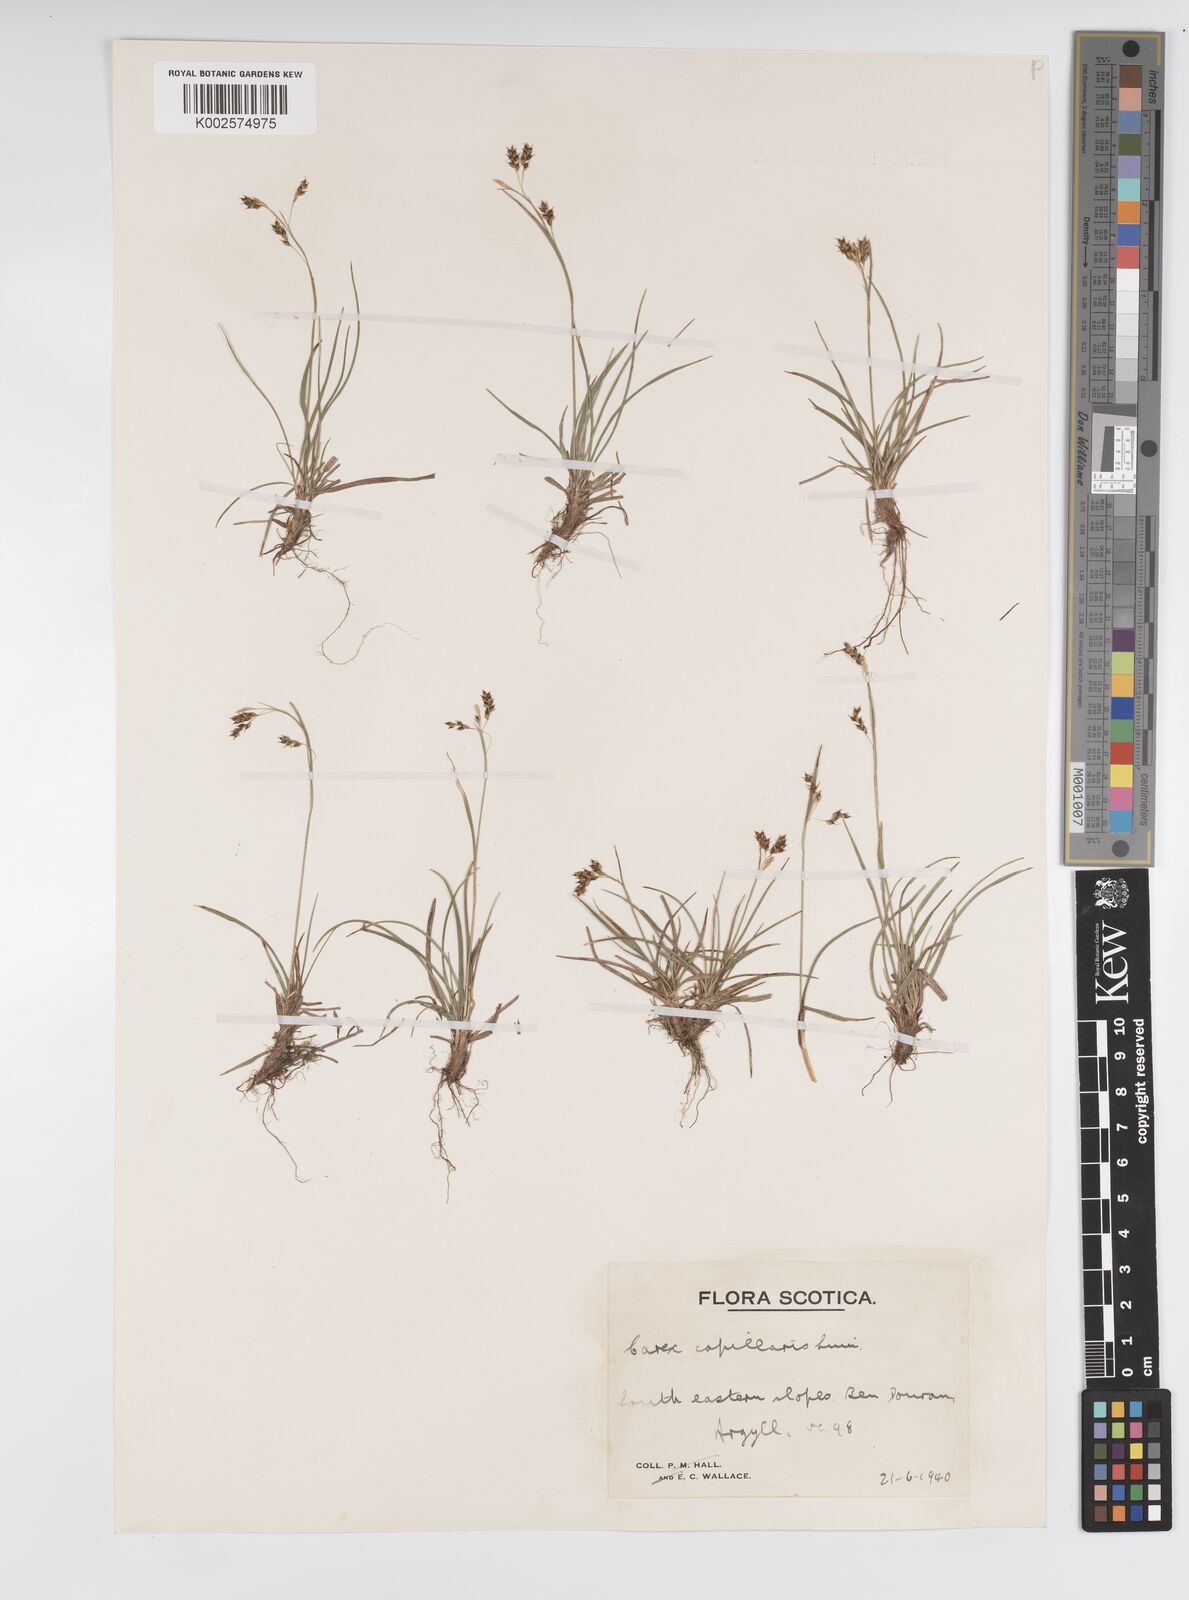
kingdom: Plantae
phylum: Tracheophyta
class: Liliopsida
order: Poales
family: Cyperaceae
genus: Carex
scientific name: Carex capillaris
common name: Hair sedge
